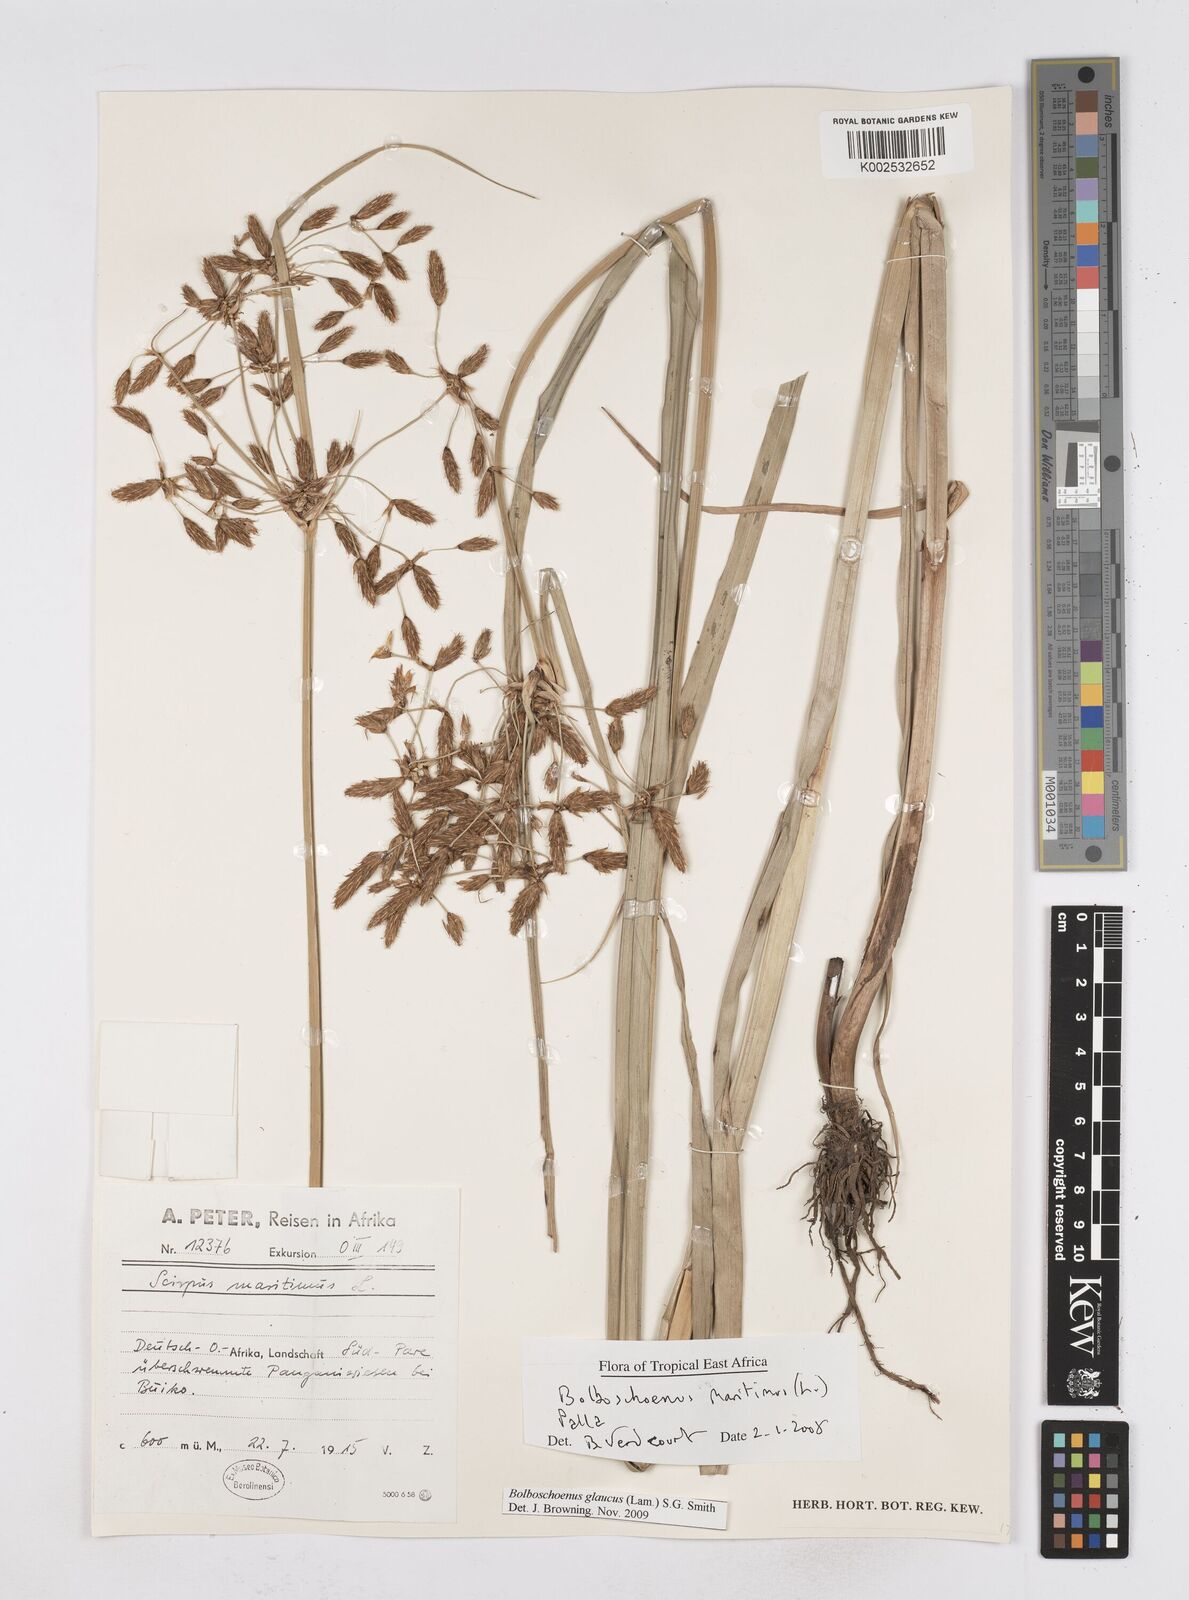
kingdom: Plantae
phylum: Tracheophyta
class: Liliopsida
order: Poales
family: Cyperaceae
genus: Bolboschoenus
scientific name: Bolboschoenus glaucus
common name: Tuberous bulrush
